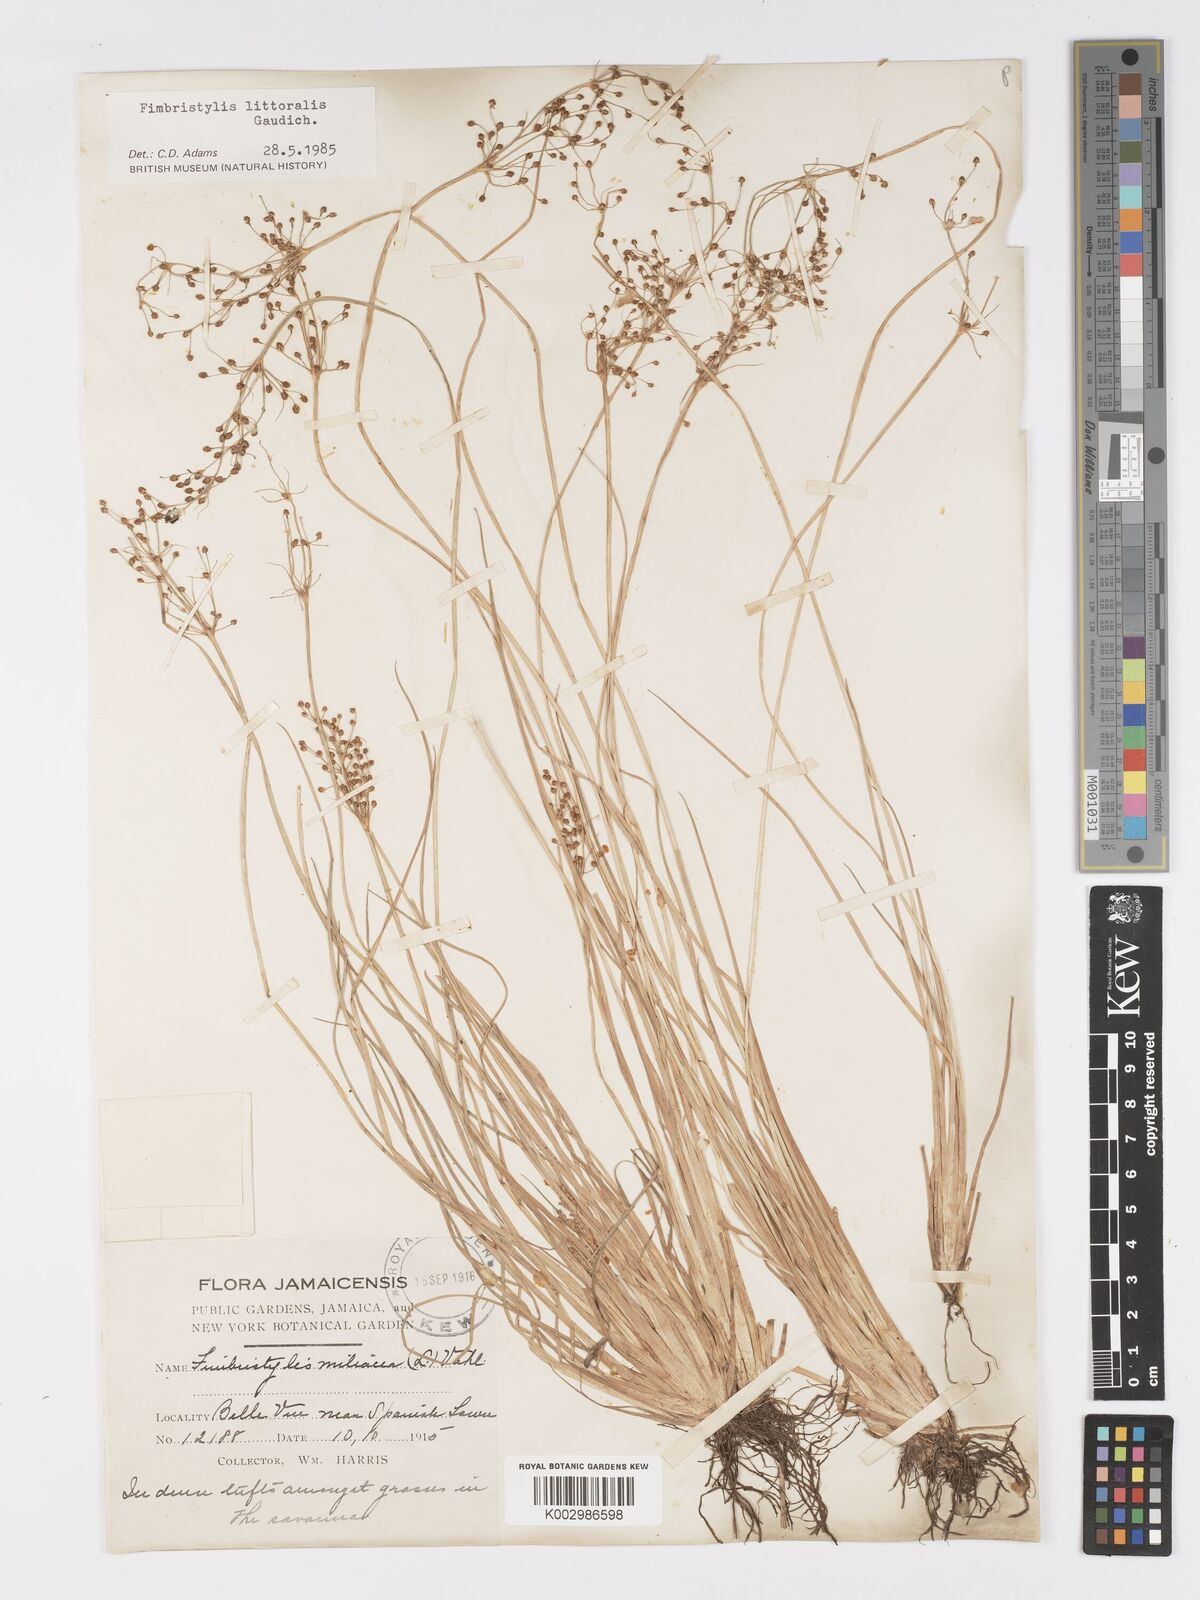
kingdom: Plantae
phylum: Tracheophyta
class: Liliopsida
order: Poales
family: Cyperaceae
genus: Fimbristylis
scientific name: Fimbristylis littoralis
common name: Fimbry
